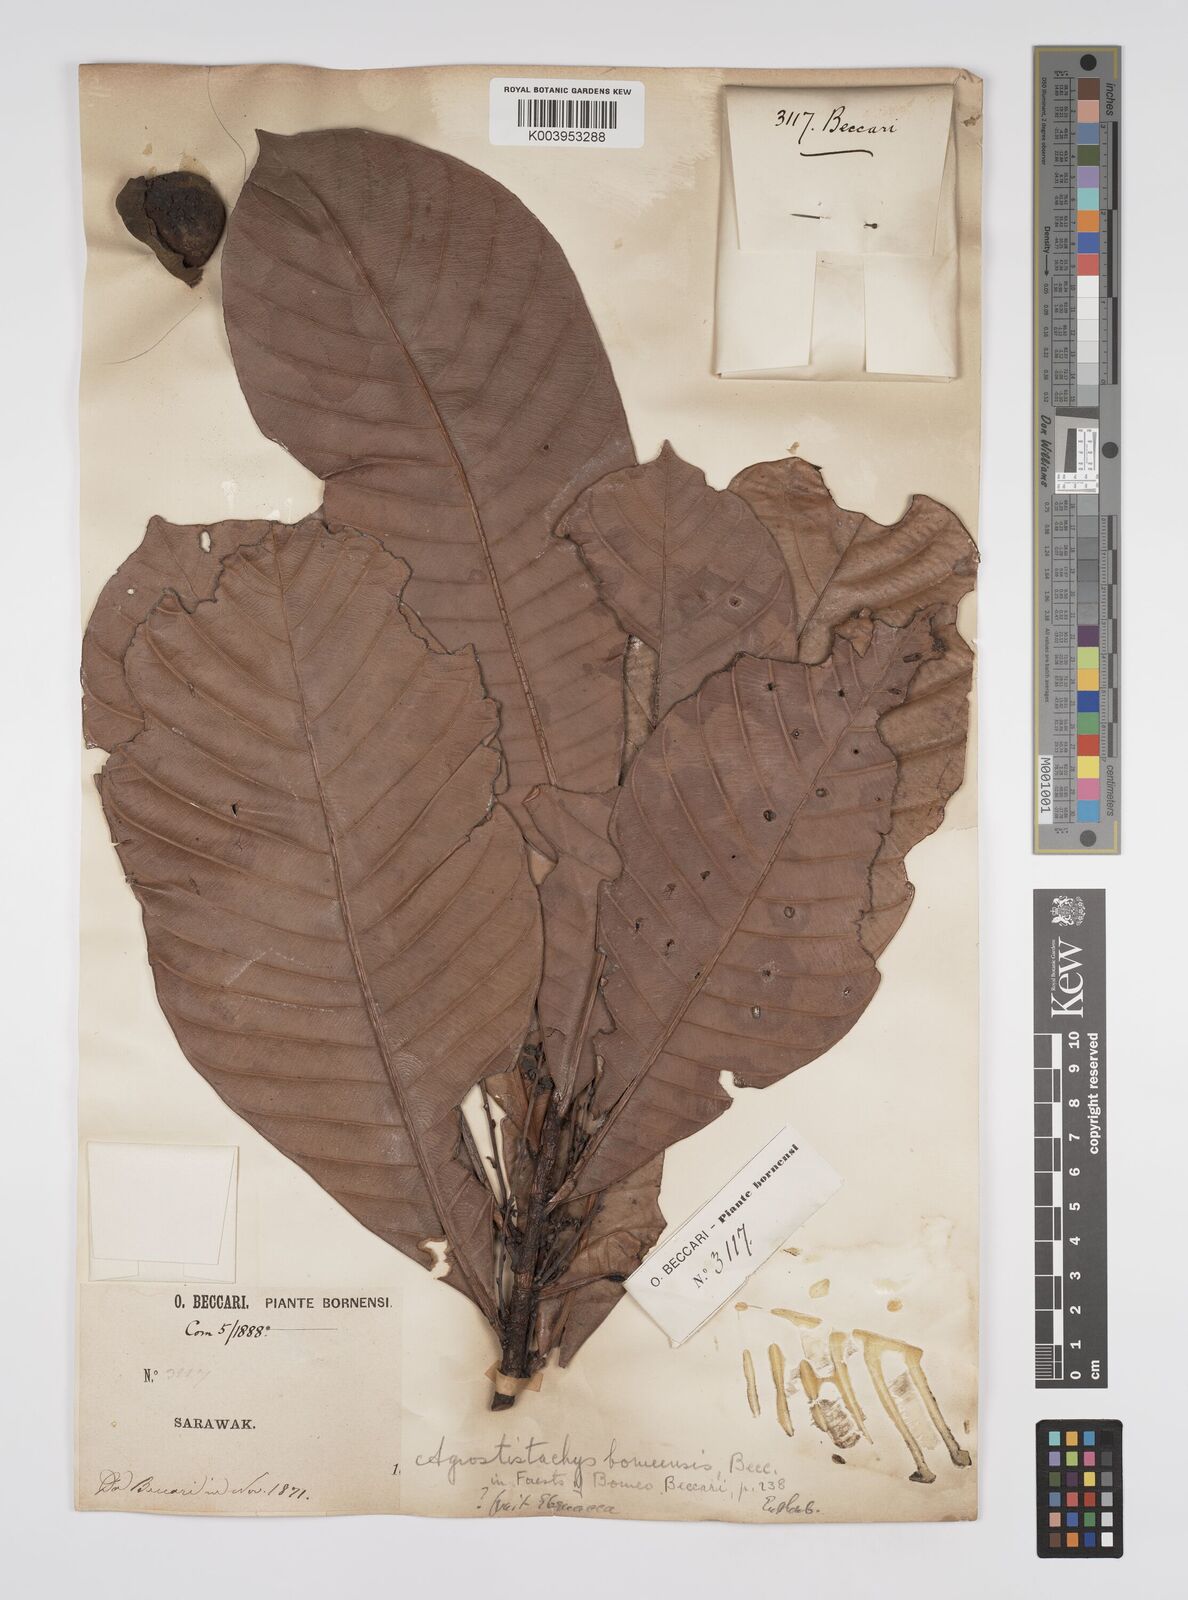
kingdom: Plantae
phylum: Tracheophyta
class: Magnoliopsida
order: Malpighiales
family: Euphorbiaceae
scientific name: Euphorbiaceae
